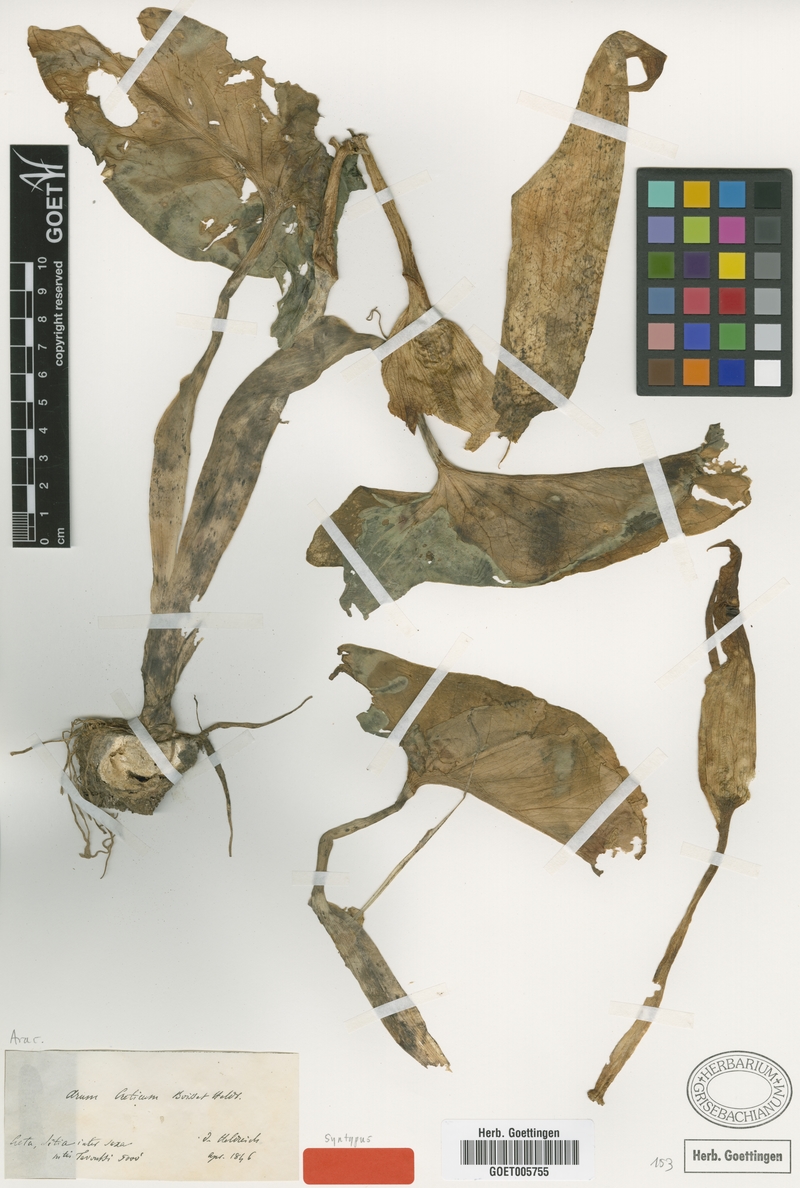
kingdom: Plantae
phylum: Tracheophyta
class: Liliopsida
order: Alismatales
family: Araceae
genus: Arum
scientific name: Arum creticum
